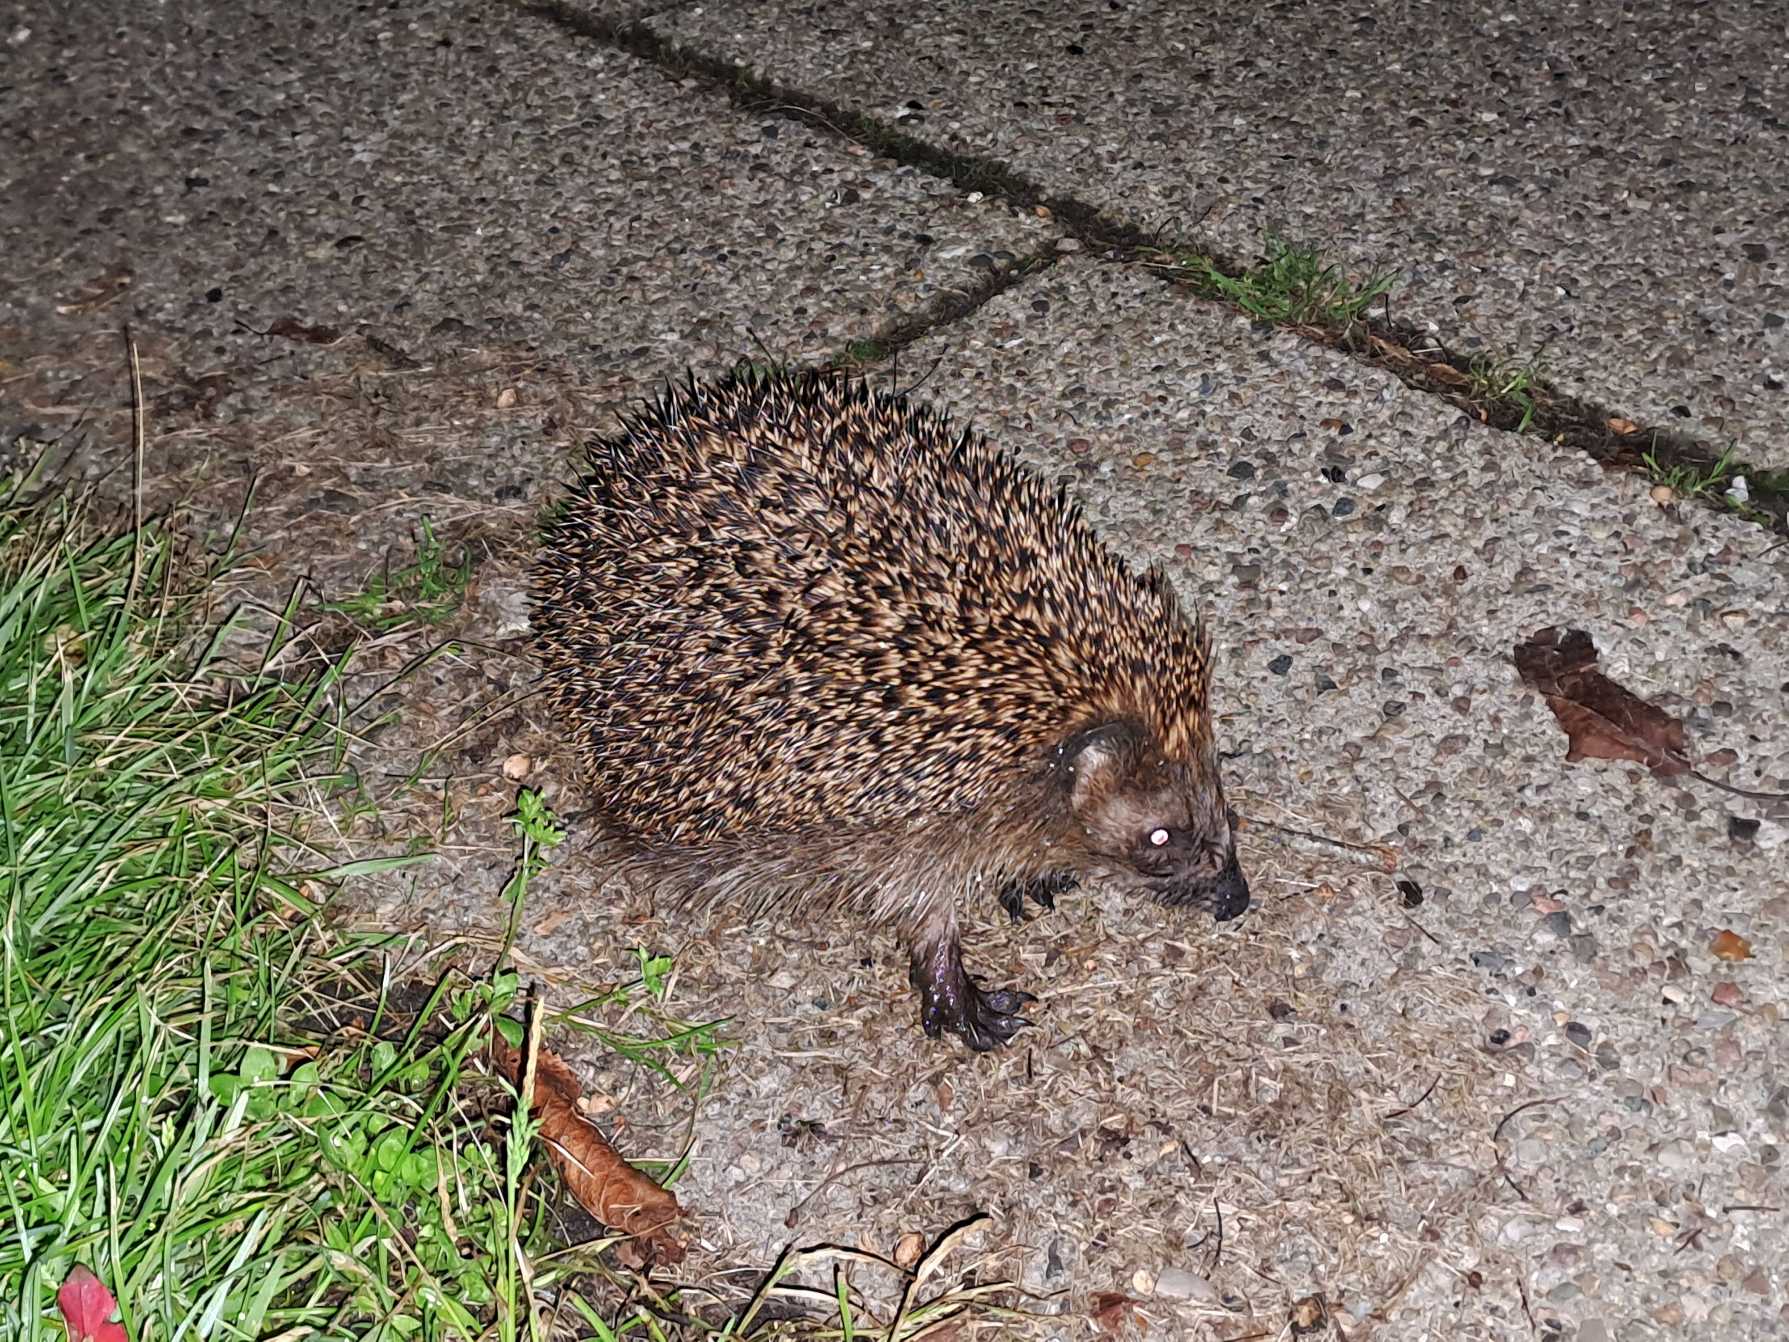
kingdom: Animalia
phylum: Chordata
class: Mammalia
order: Erinaceomorpha
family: Erinaceidae
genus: Erinaceus
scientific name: Erinaceus europaeus
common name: Pindsvin
